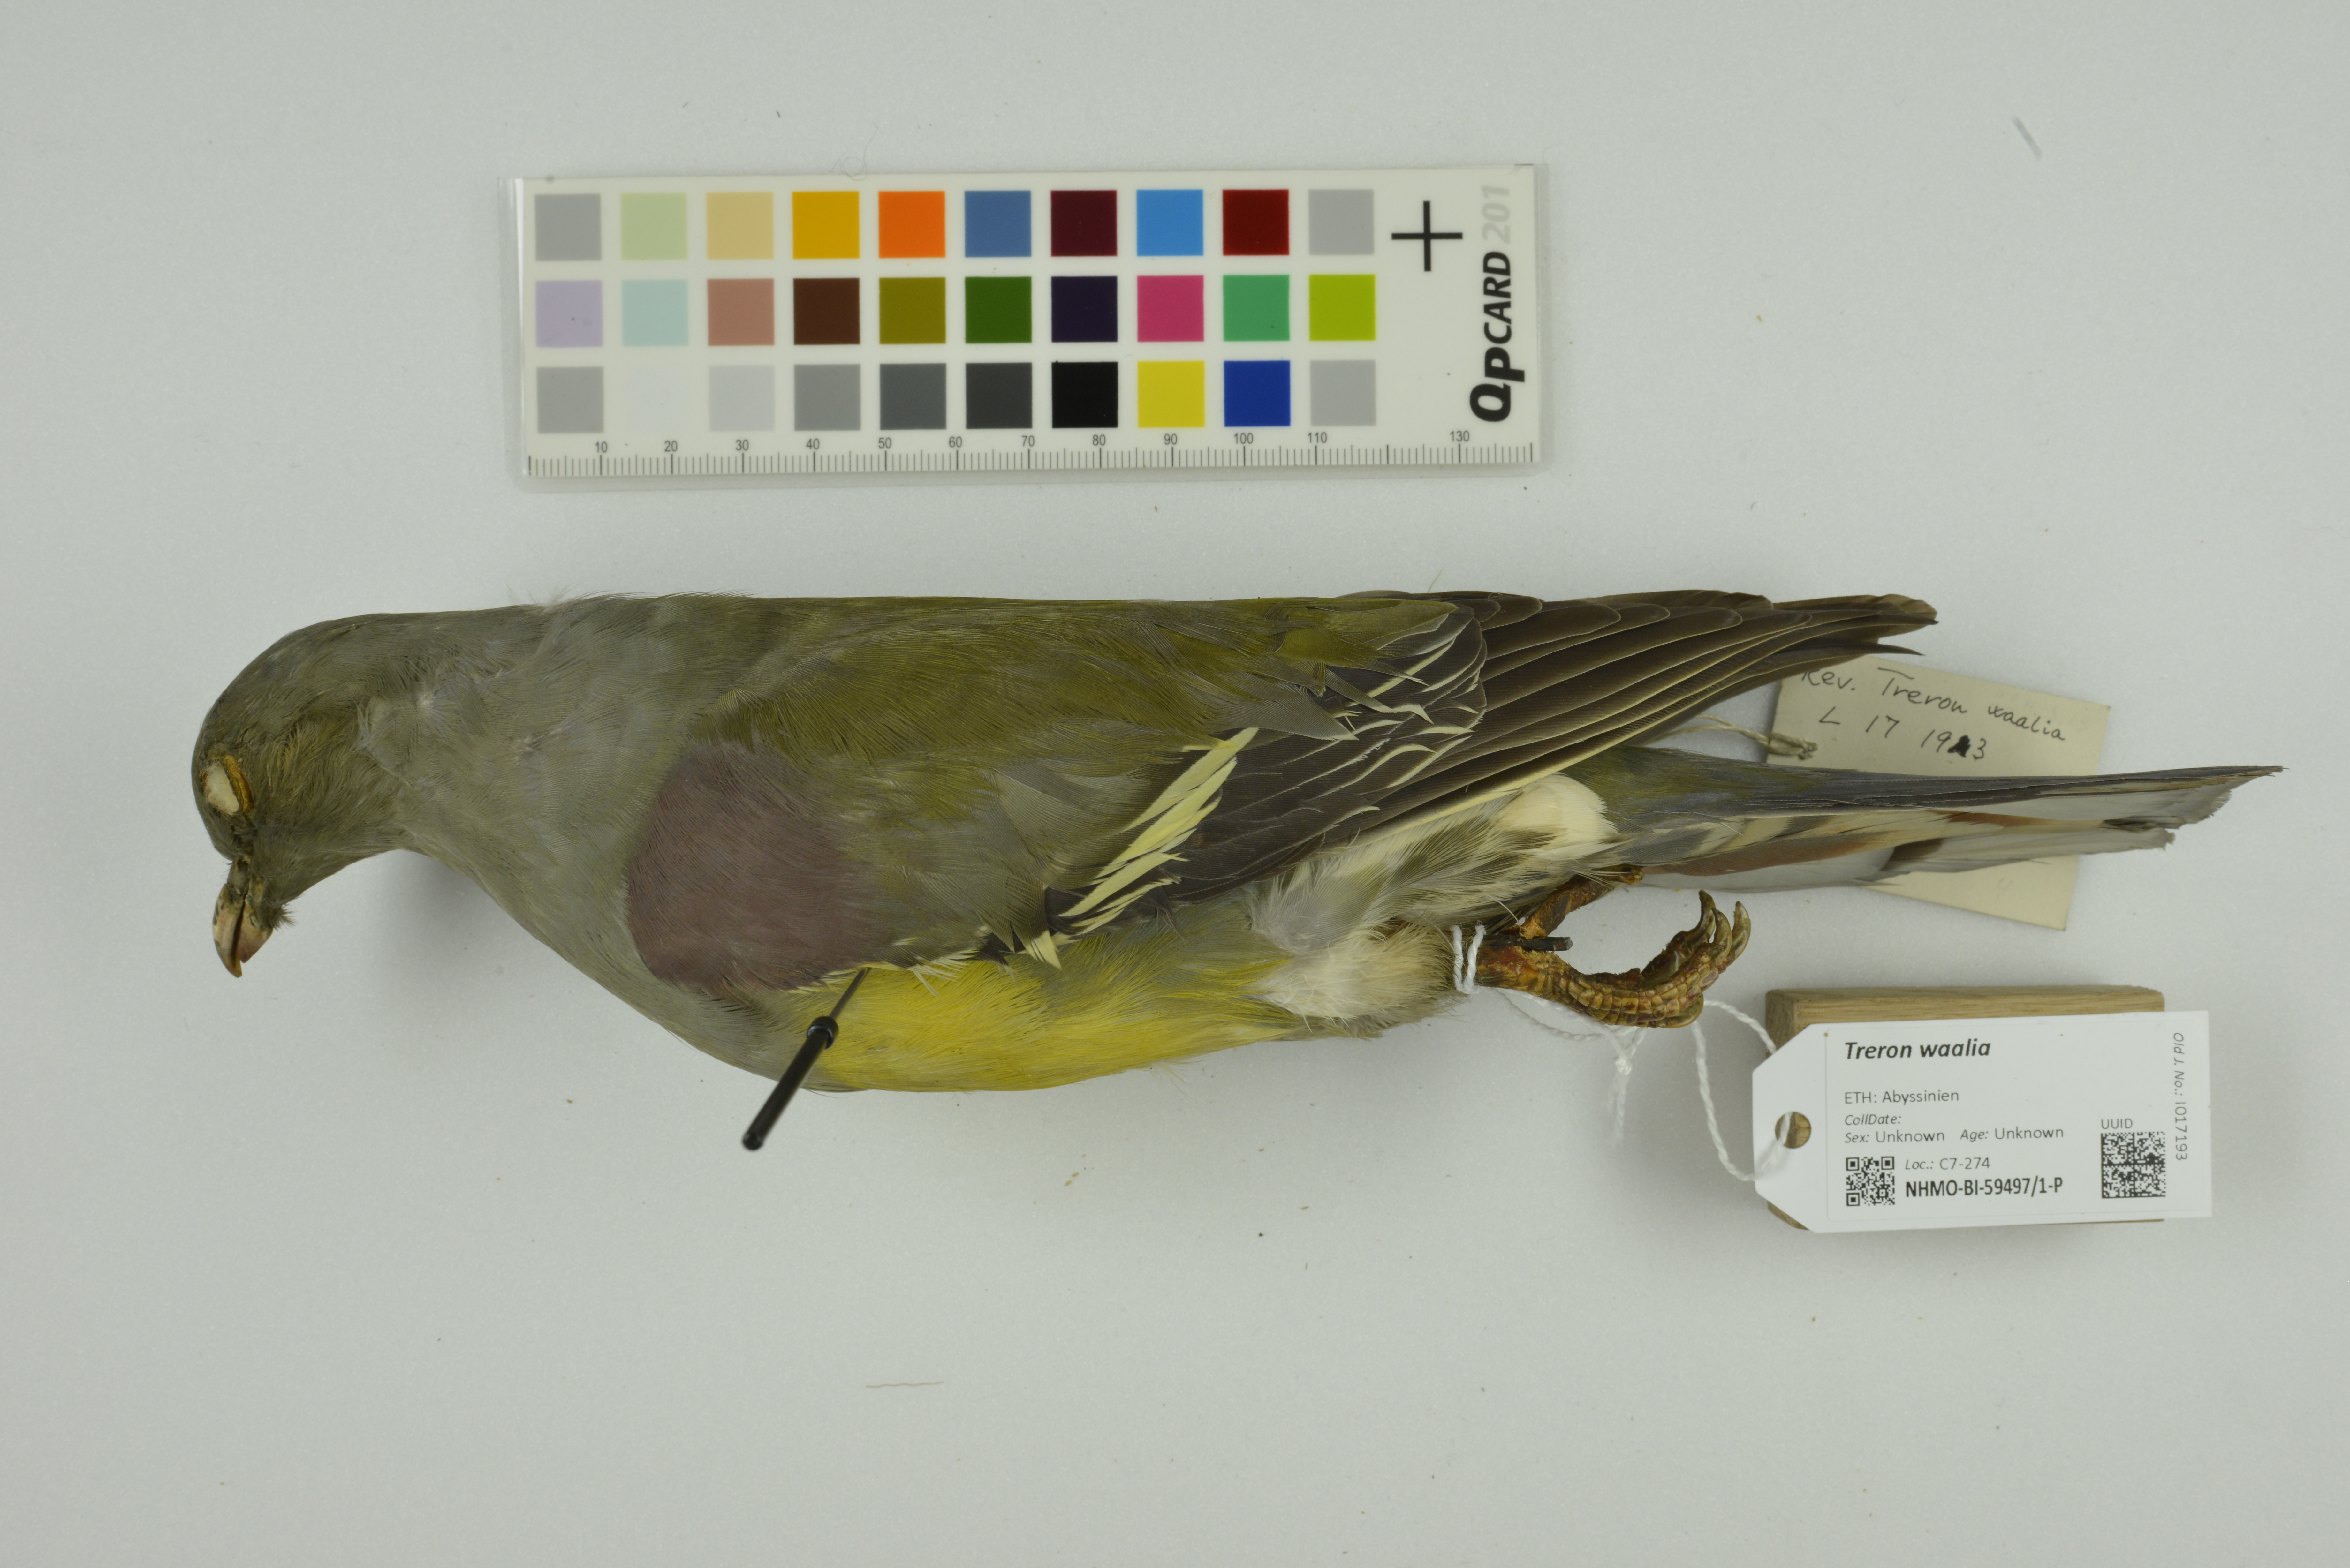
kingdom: Animalia
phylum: Chordata
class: Aves
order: Columbiformes
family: Columbidae
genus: Treron
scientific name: Treron waalia
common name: Bruce's green pigeon
